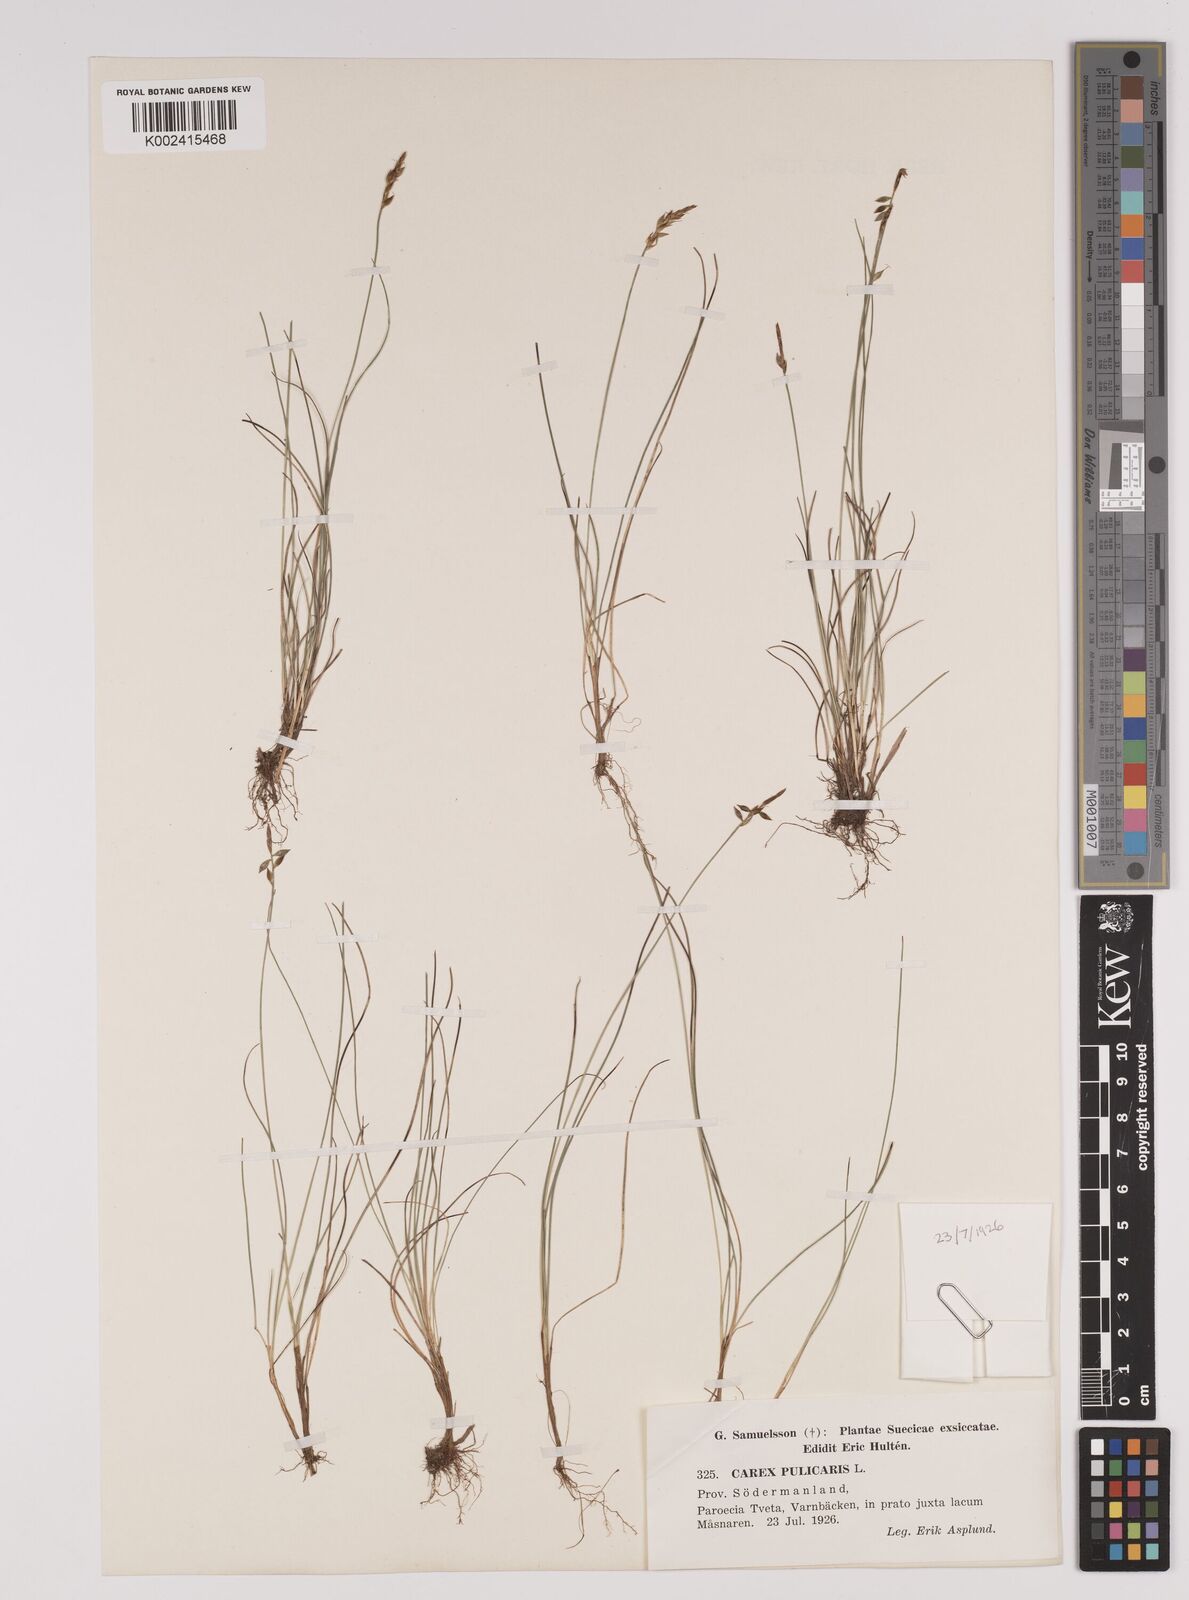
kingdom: Plantae
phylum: Tracheophyta
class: Liliopsida
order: Poales
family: Cyperaceae
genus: Carex
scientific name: Carex pulicaris
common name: Flea sedge
